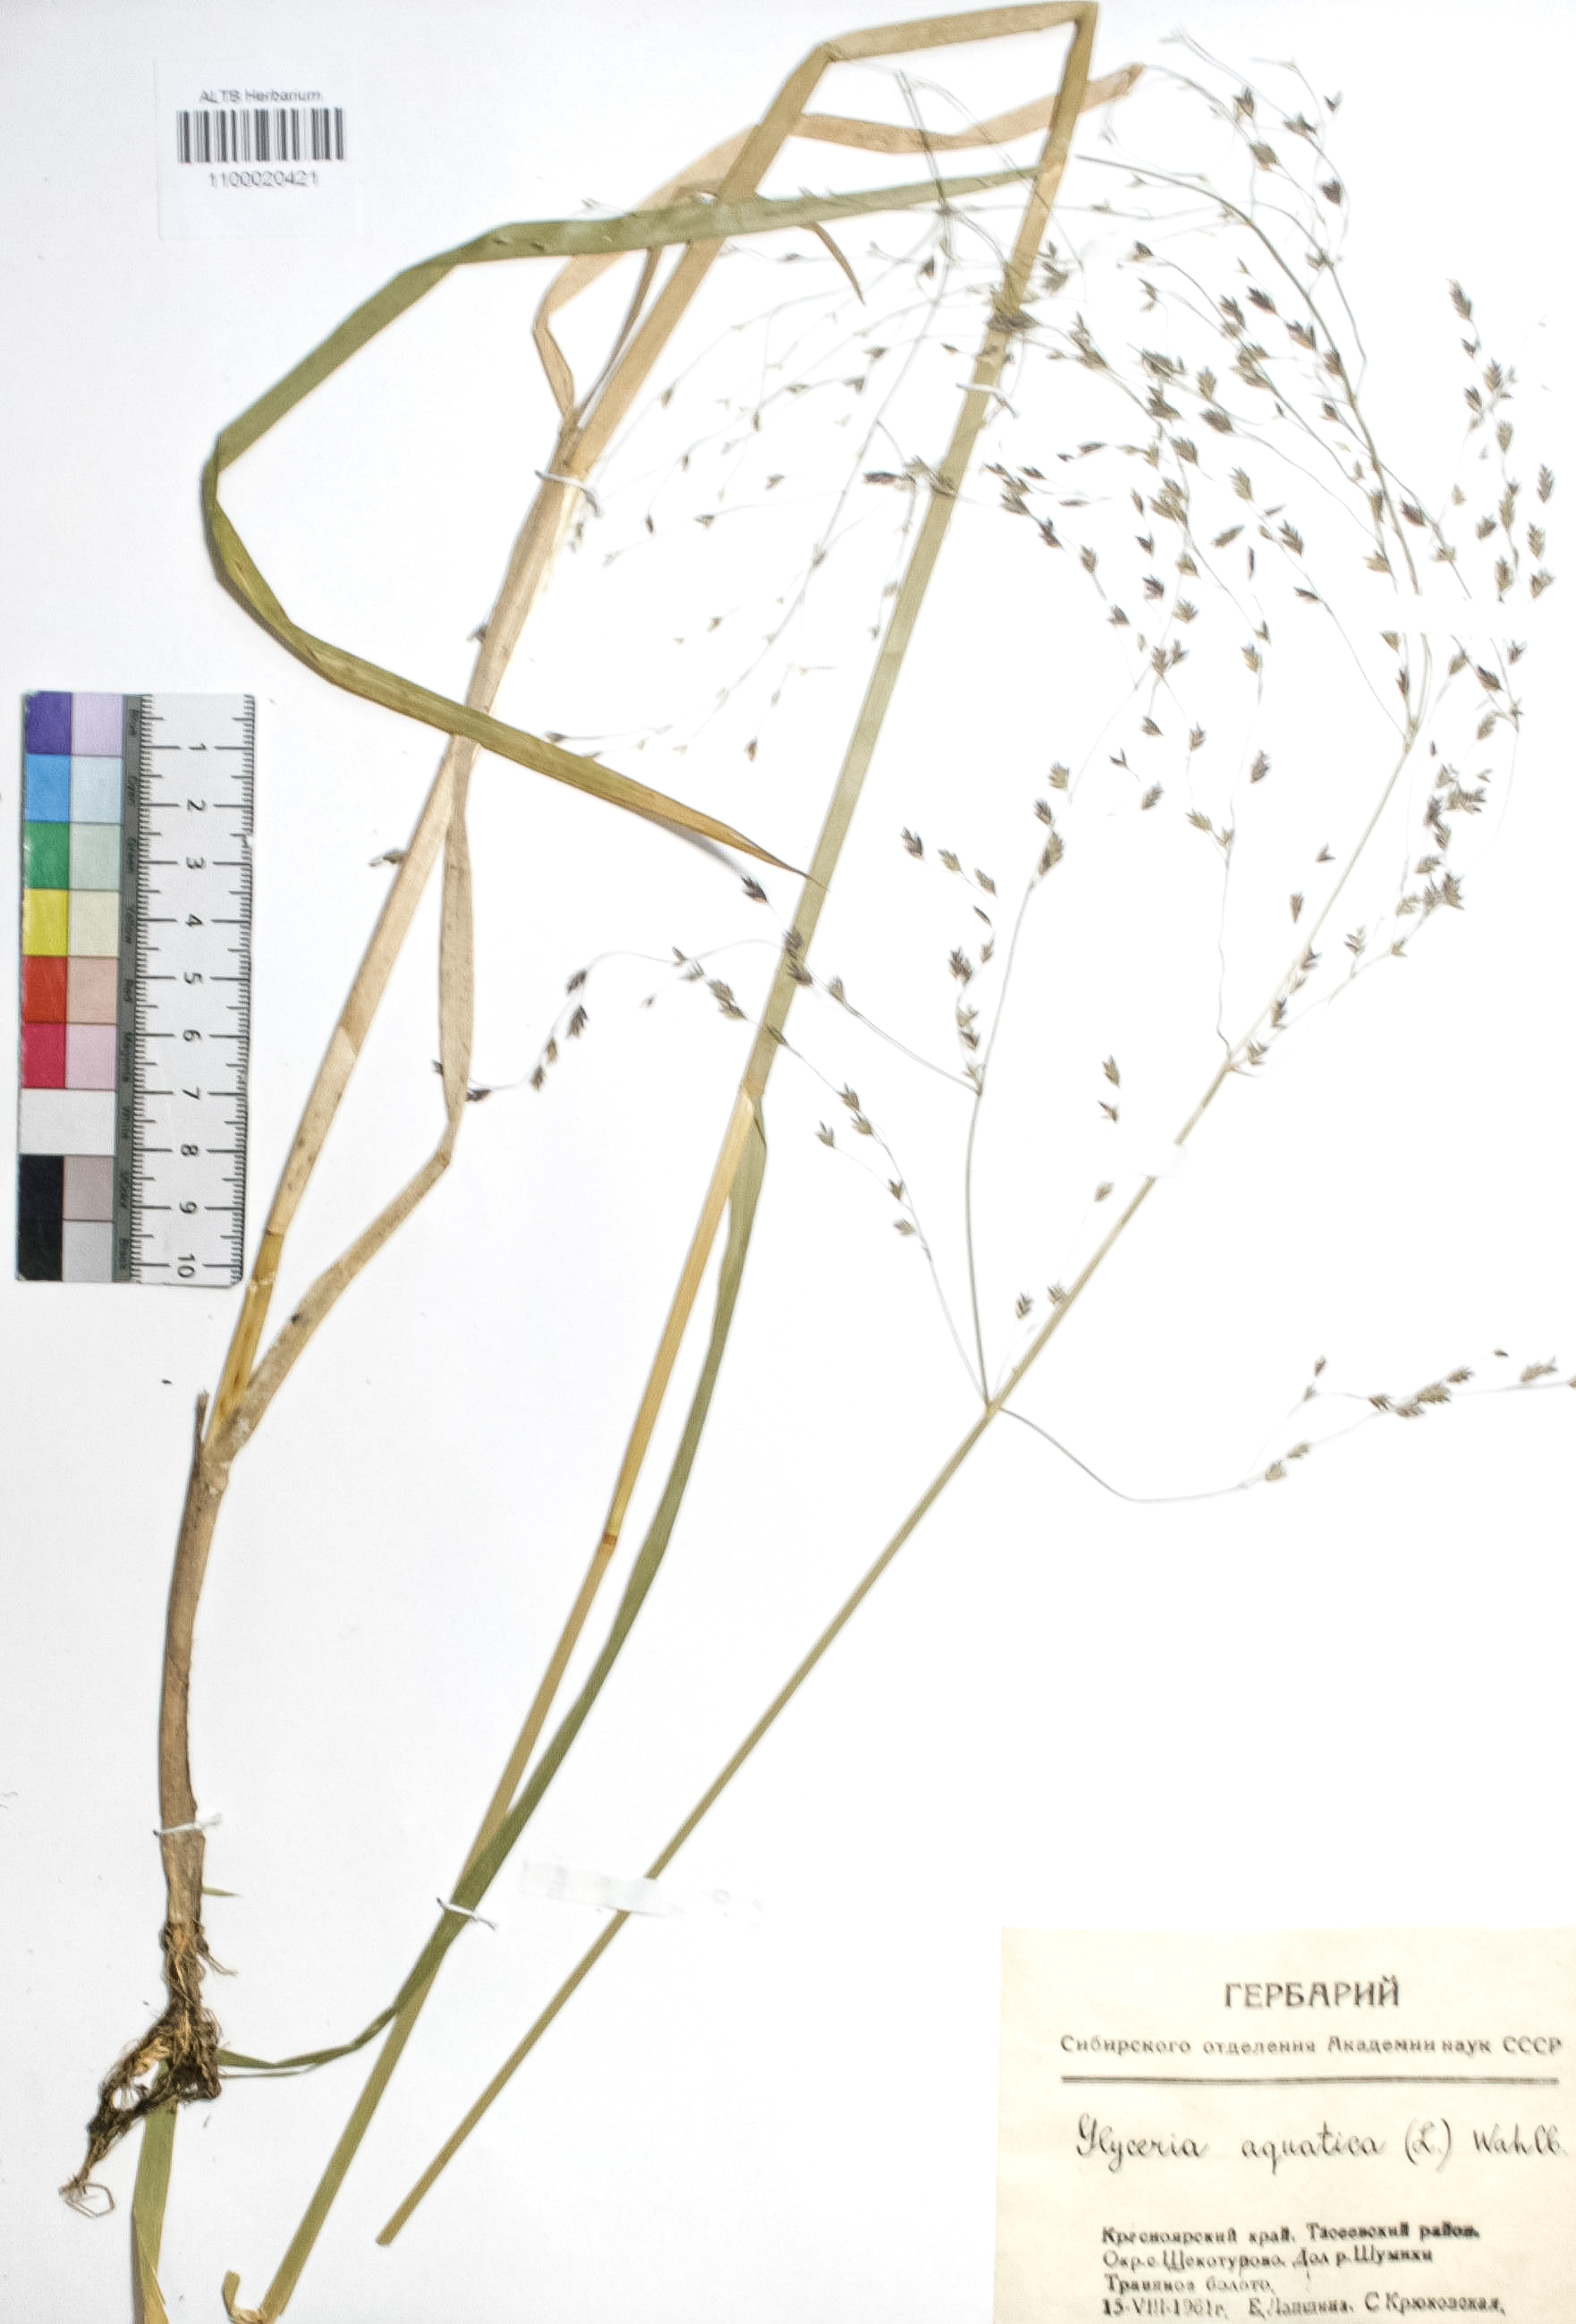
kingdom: Plantae
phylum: Tracheophyta
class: Liliopsida
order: Poales
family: Poaceae
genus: Glyceria
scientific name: Glyceria maxima
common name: Reed mannagrass
